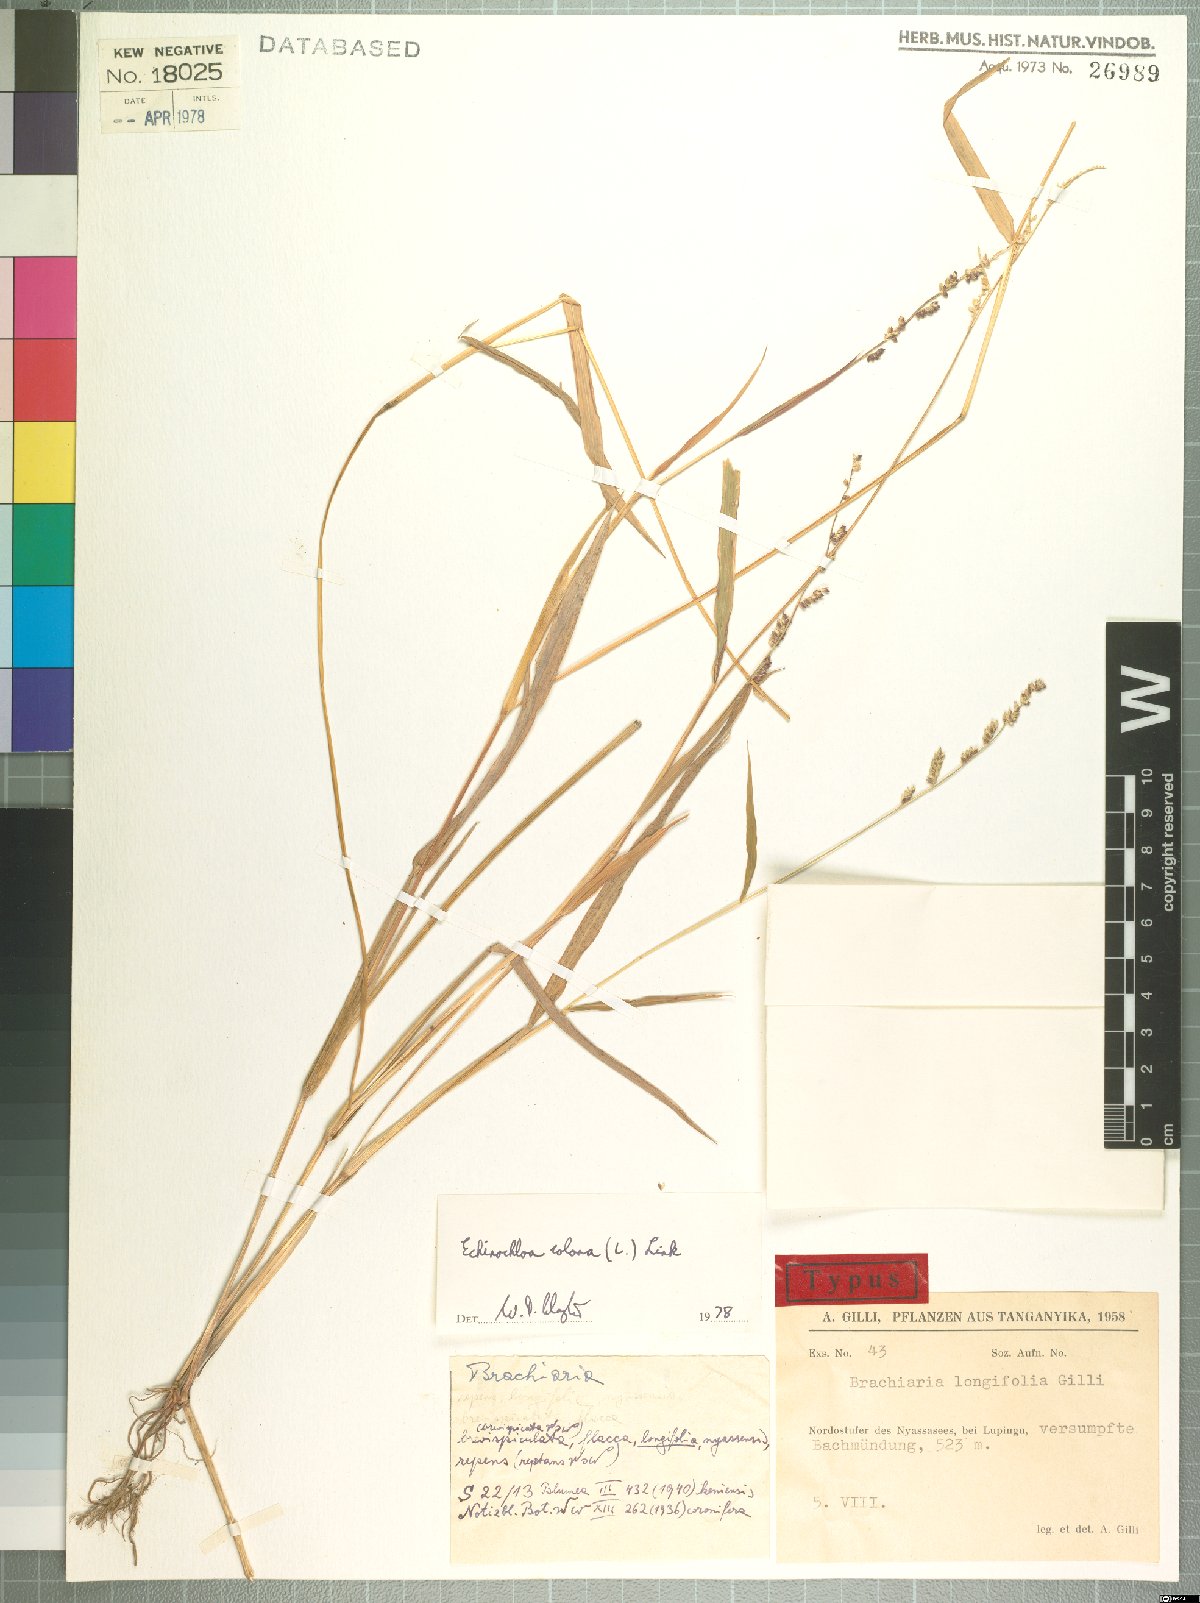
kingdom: Plantae
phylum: Tracheophyta
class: Liliopsida
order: Poales
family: Poaceae
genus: Echinochloa
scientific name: Echinochloa colonum
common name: Jungle rice
